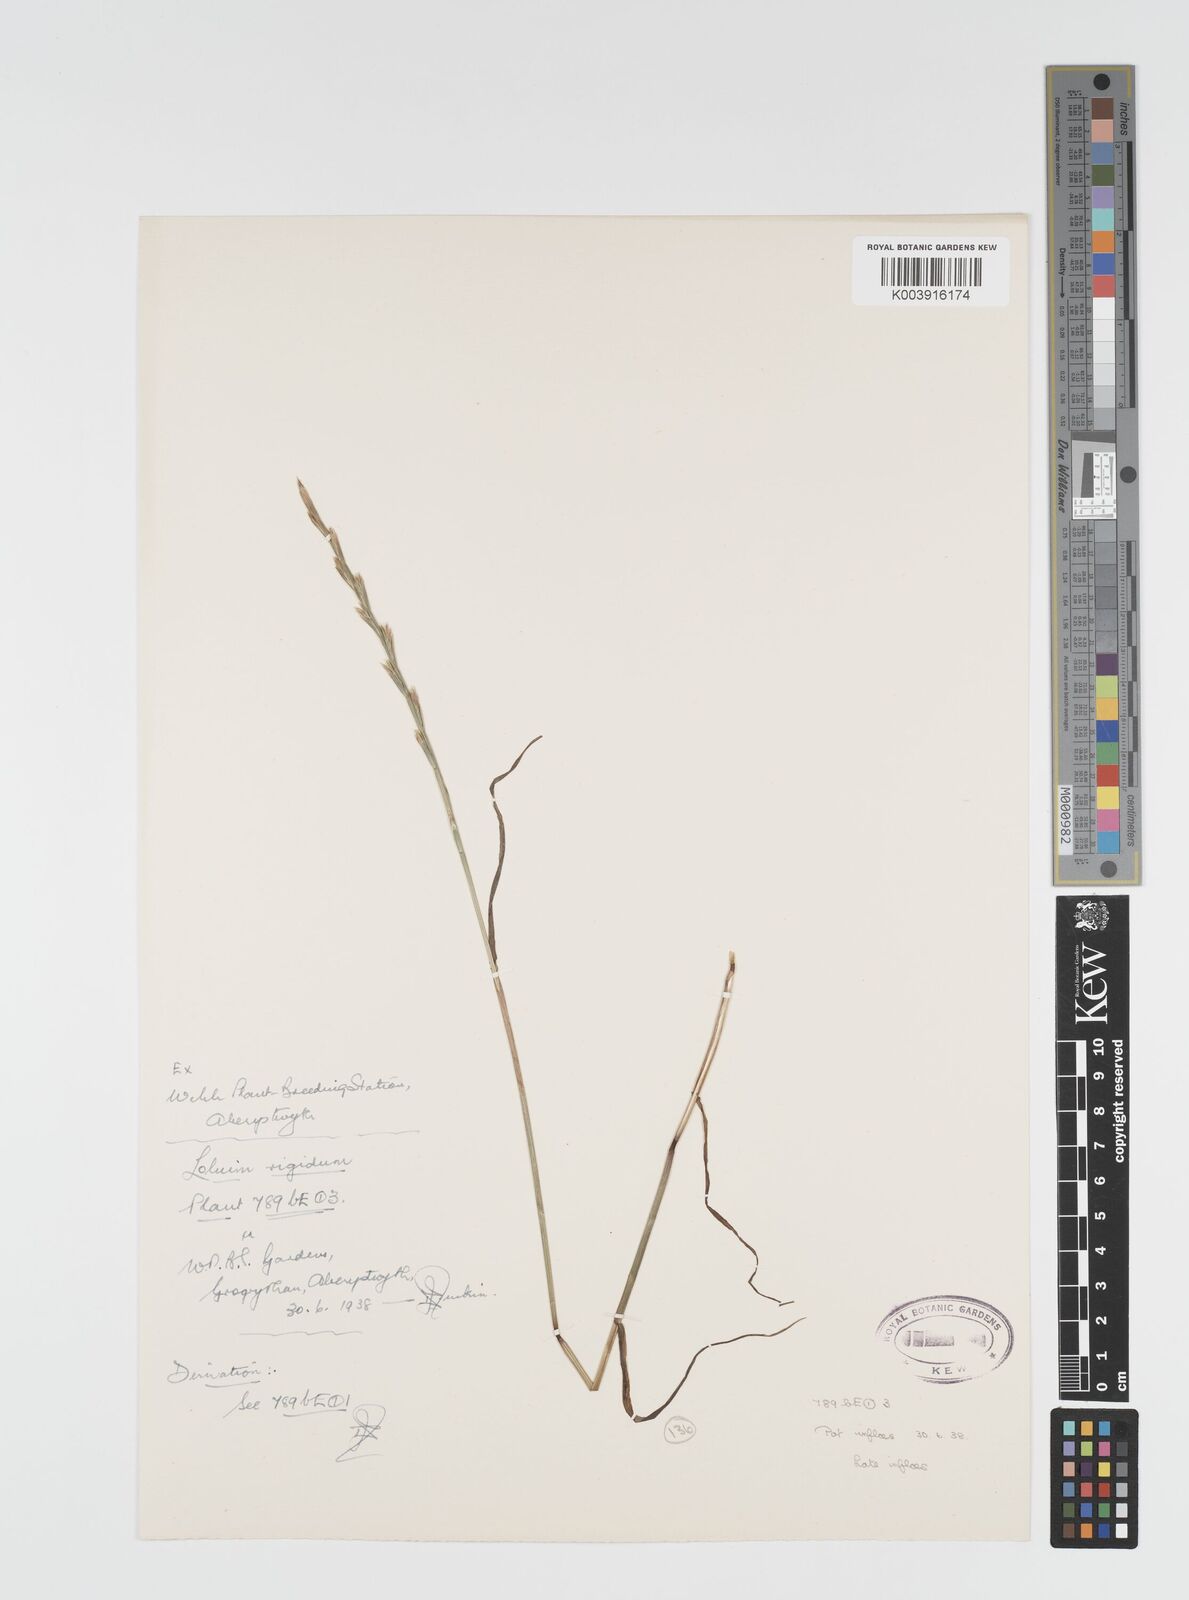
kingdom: Plantae
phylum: Tracheophyta
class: Liliopsida
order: Poales
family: Poaceae
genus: Lolium
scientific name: Lolium rigidum
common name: Wimmera ryegrass
